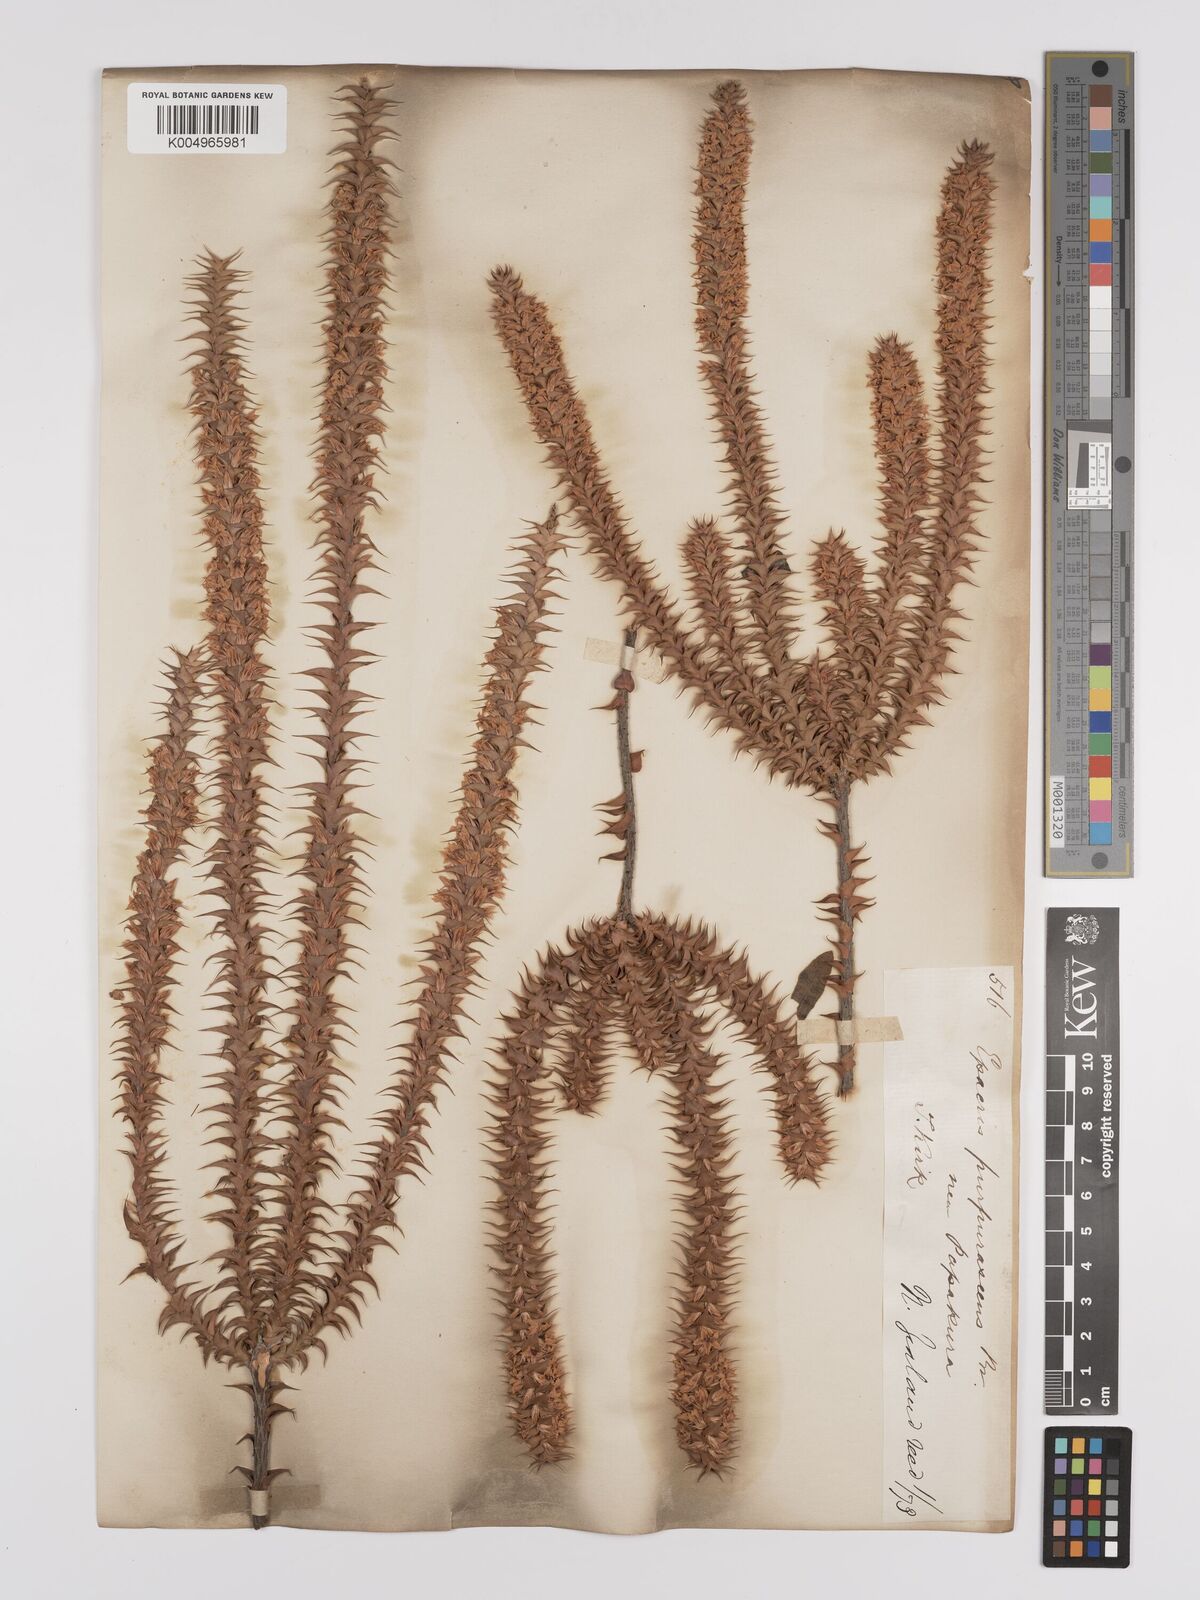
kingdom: Plantae
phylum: Tracheophyta
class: Magnoliopsida
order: Ericales
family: Ericaceae
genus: Epacris
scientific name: Epacris purpurascens
